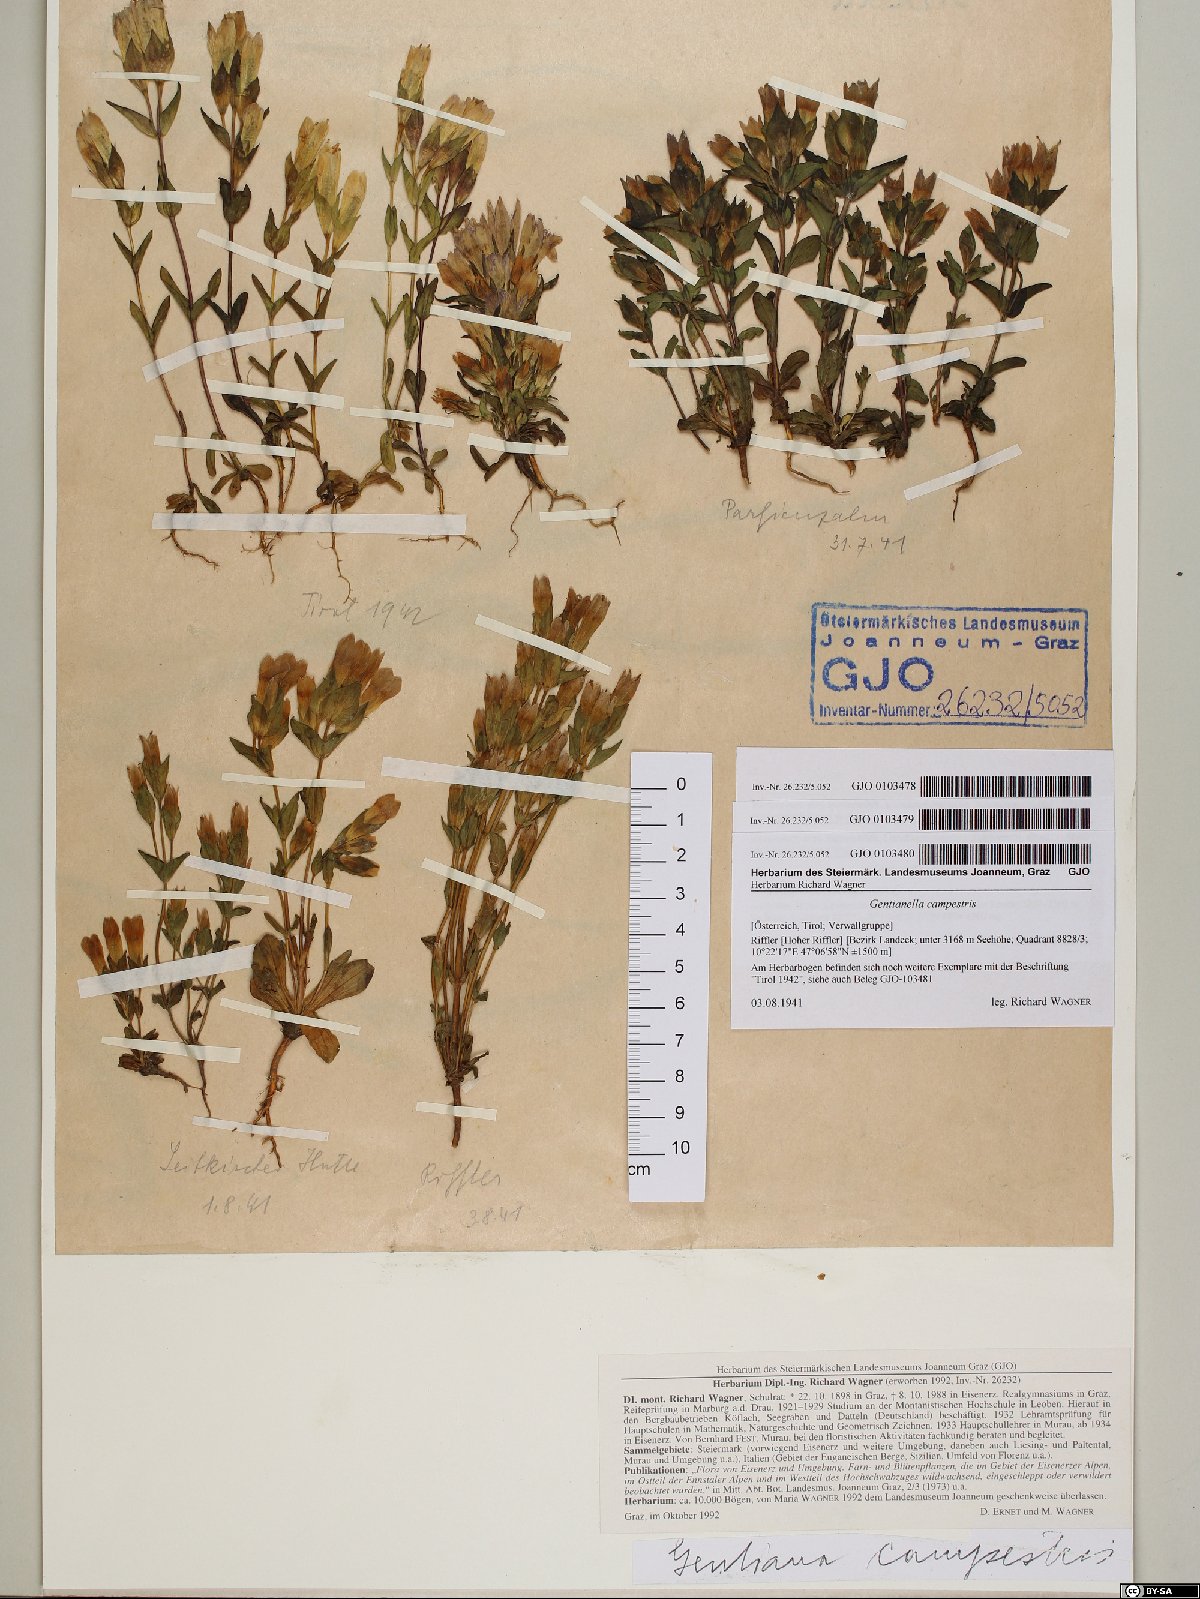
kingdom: Plantae
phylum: Tracheophyta
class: Magnoliopsida
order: Gentianales
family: Gentianaceae
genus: Gentianella
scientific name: Gentianella campestris
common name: Field gentian
